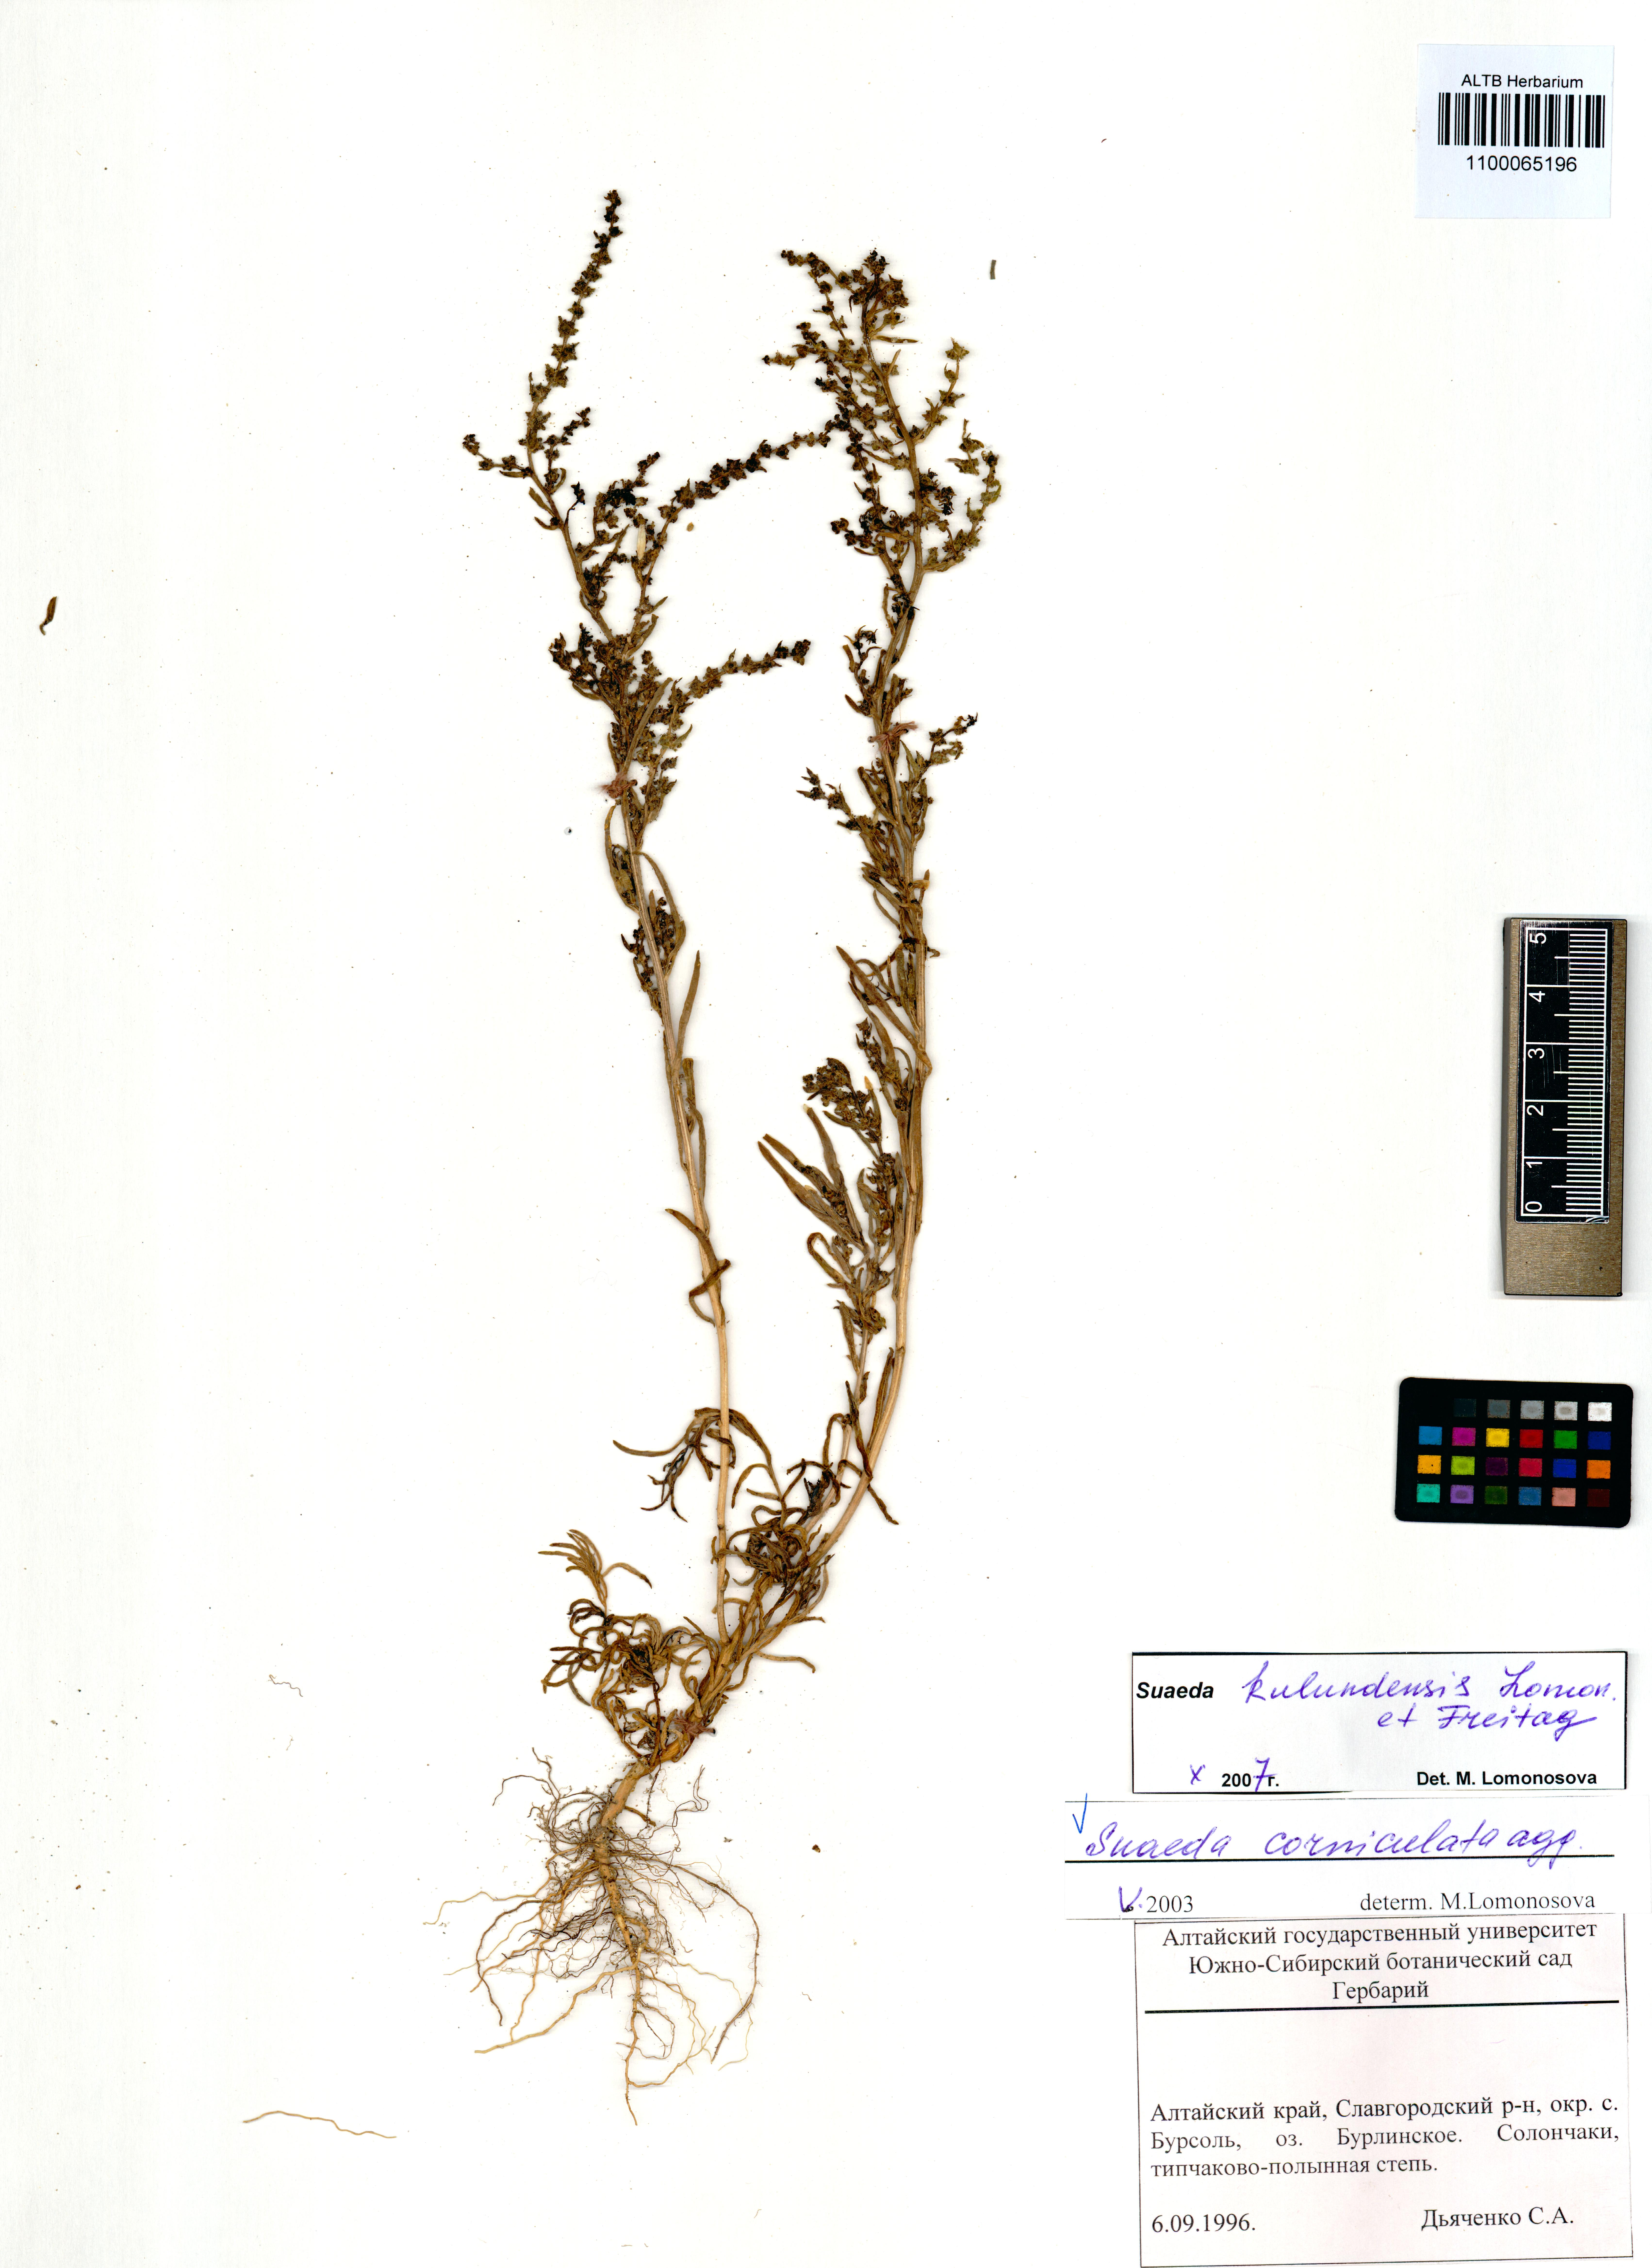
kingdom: Plantae
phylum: Tracheophyta
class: Magnoliopsida
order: Caryophyllales
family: Amaranthaceae
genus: Suaeda
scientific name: Suaeda corniculata
